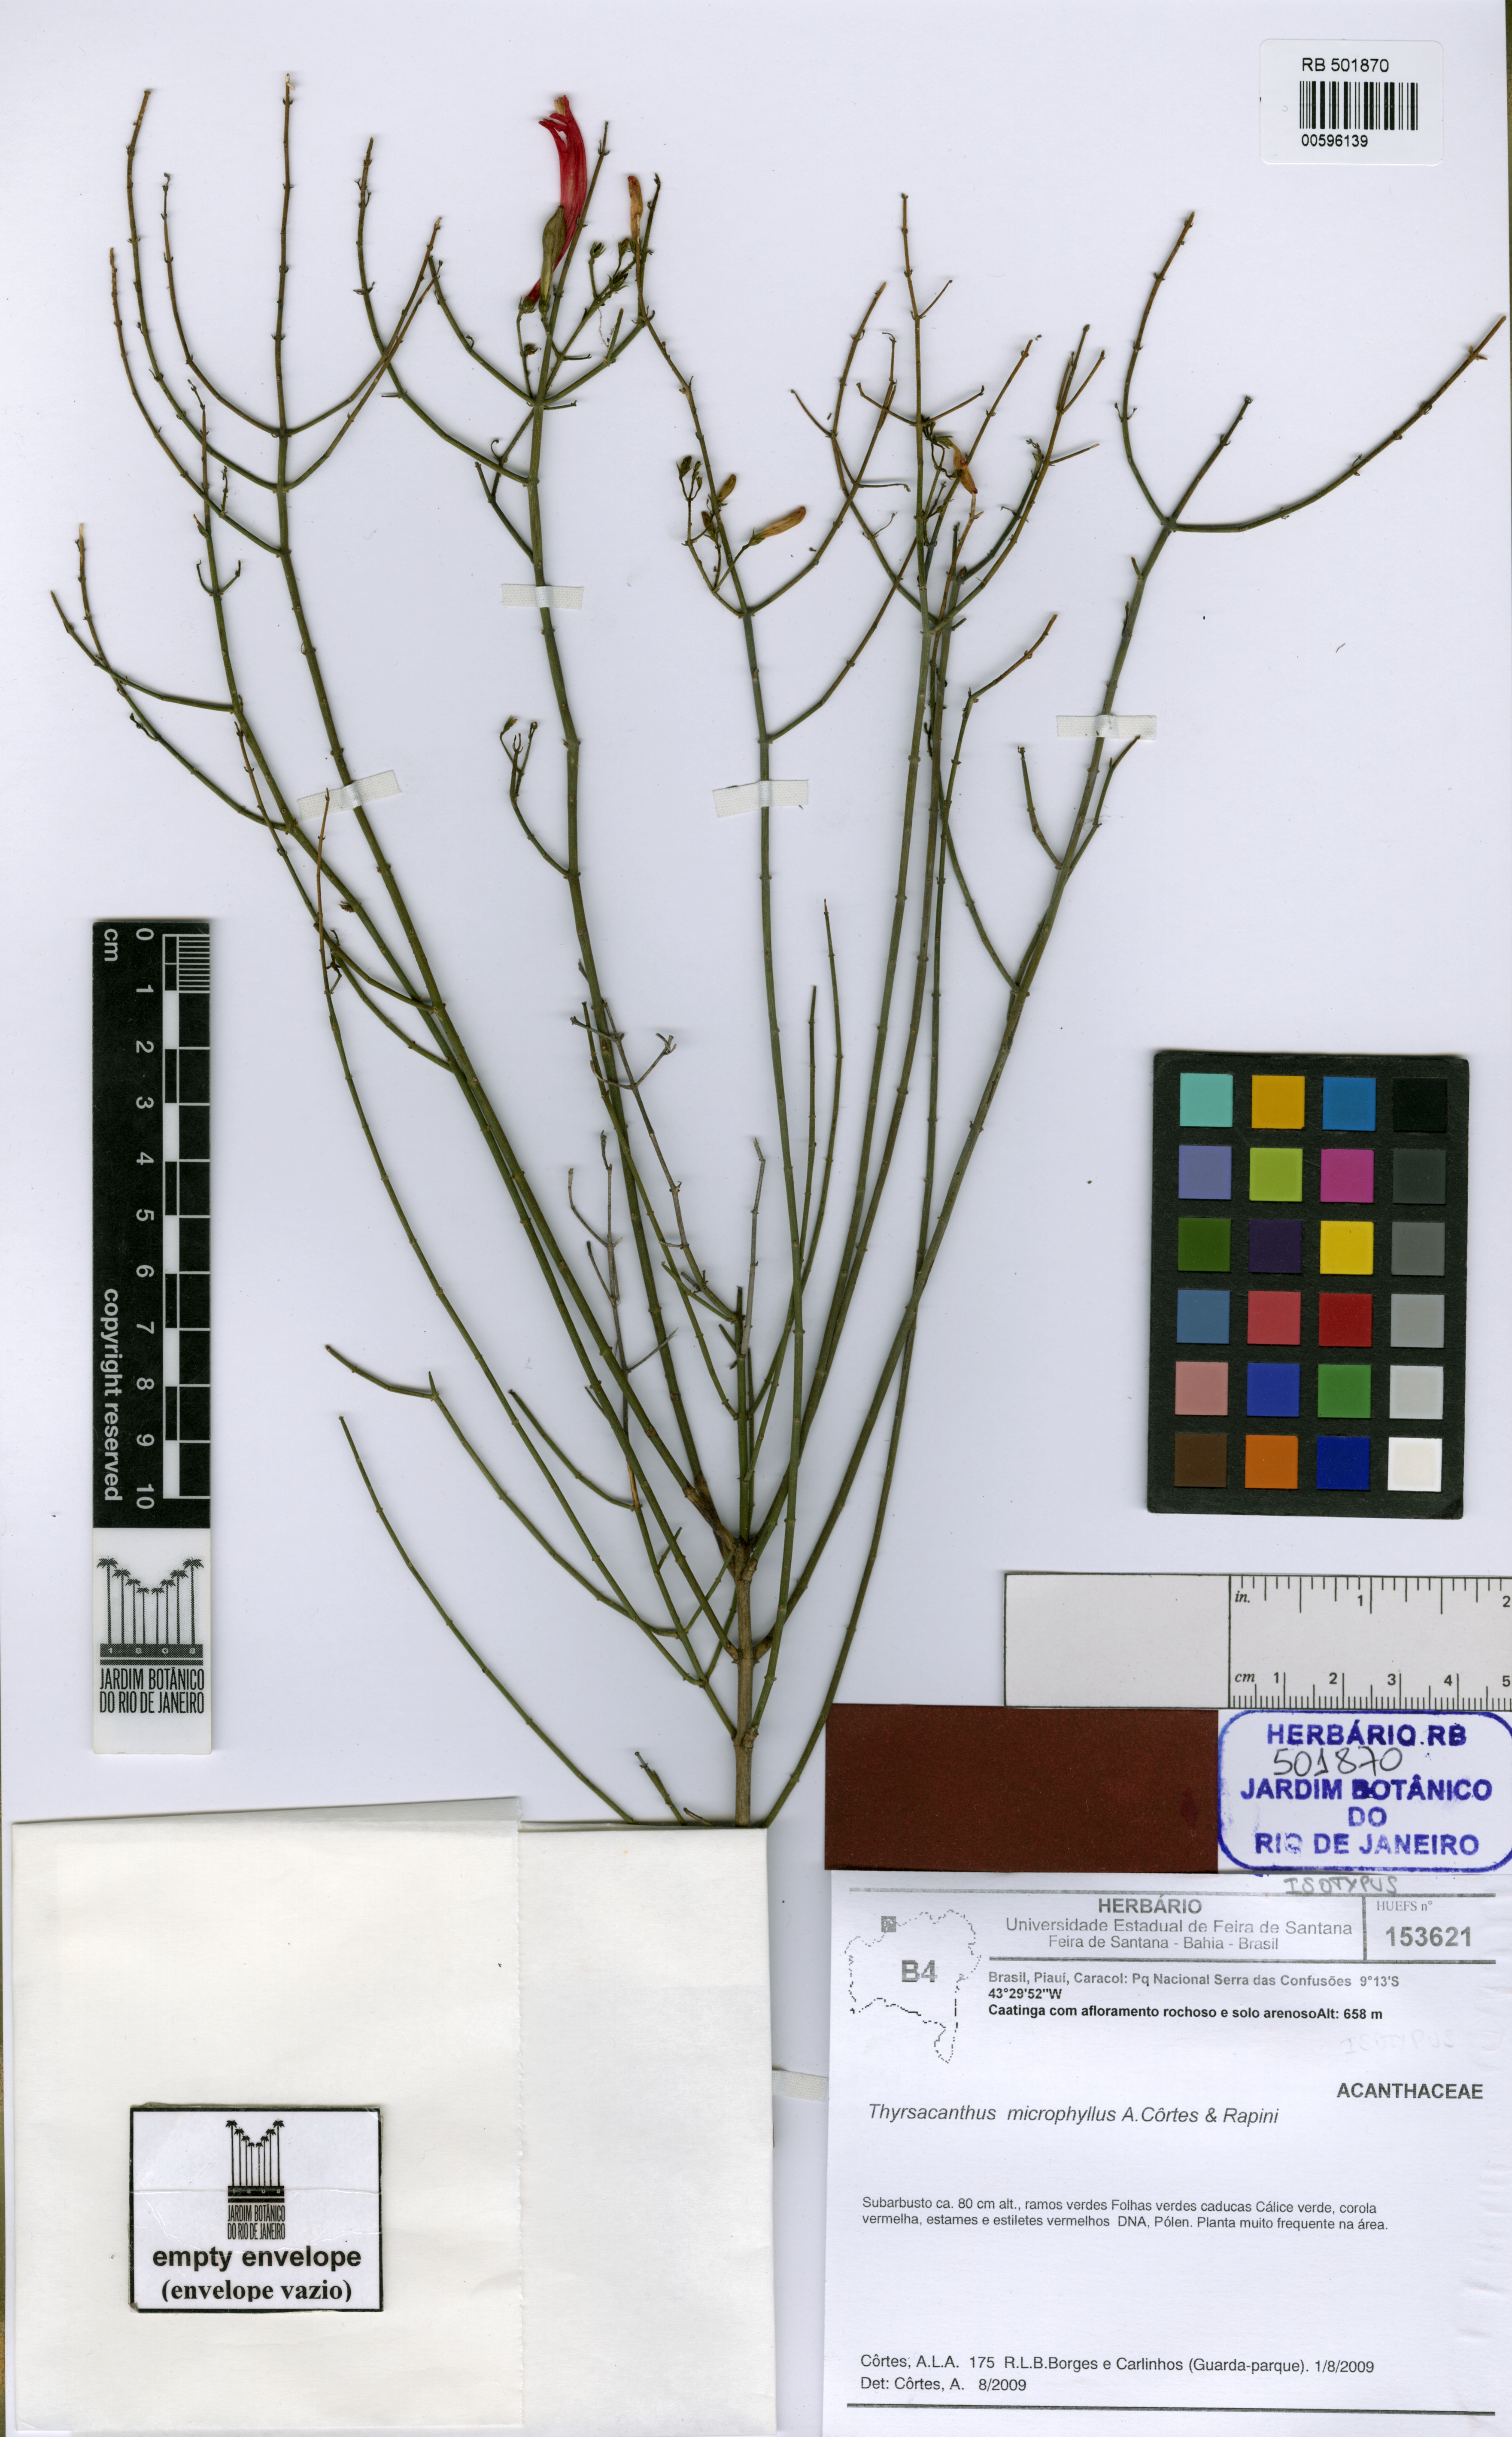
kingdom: Plantae
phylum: Tracheophyta
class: Magnoliopsida
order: Lamiales
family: Acanthaceae
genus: Thyrsacanthus
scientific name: Thyrsacanthus microphyllus
